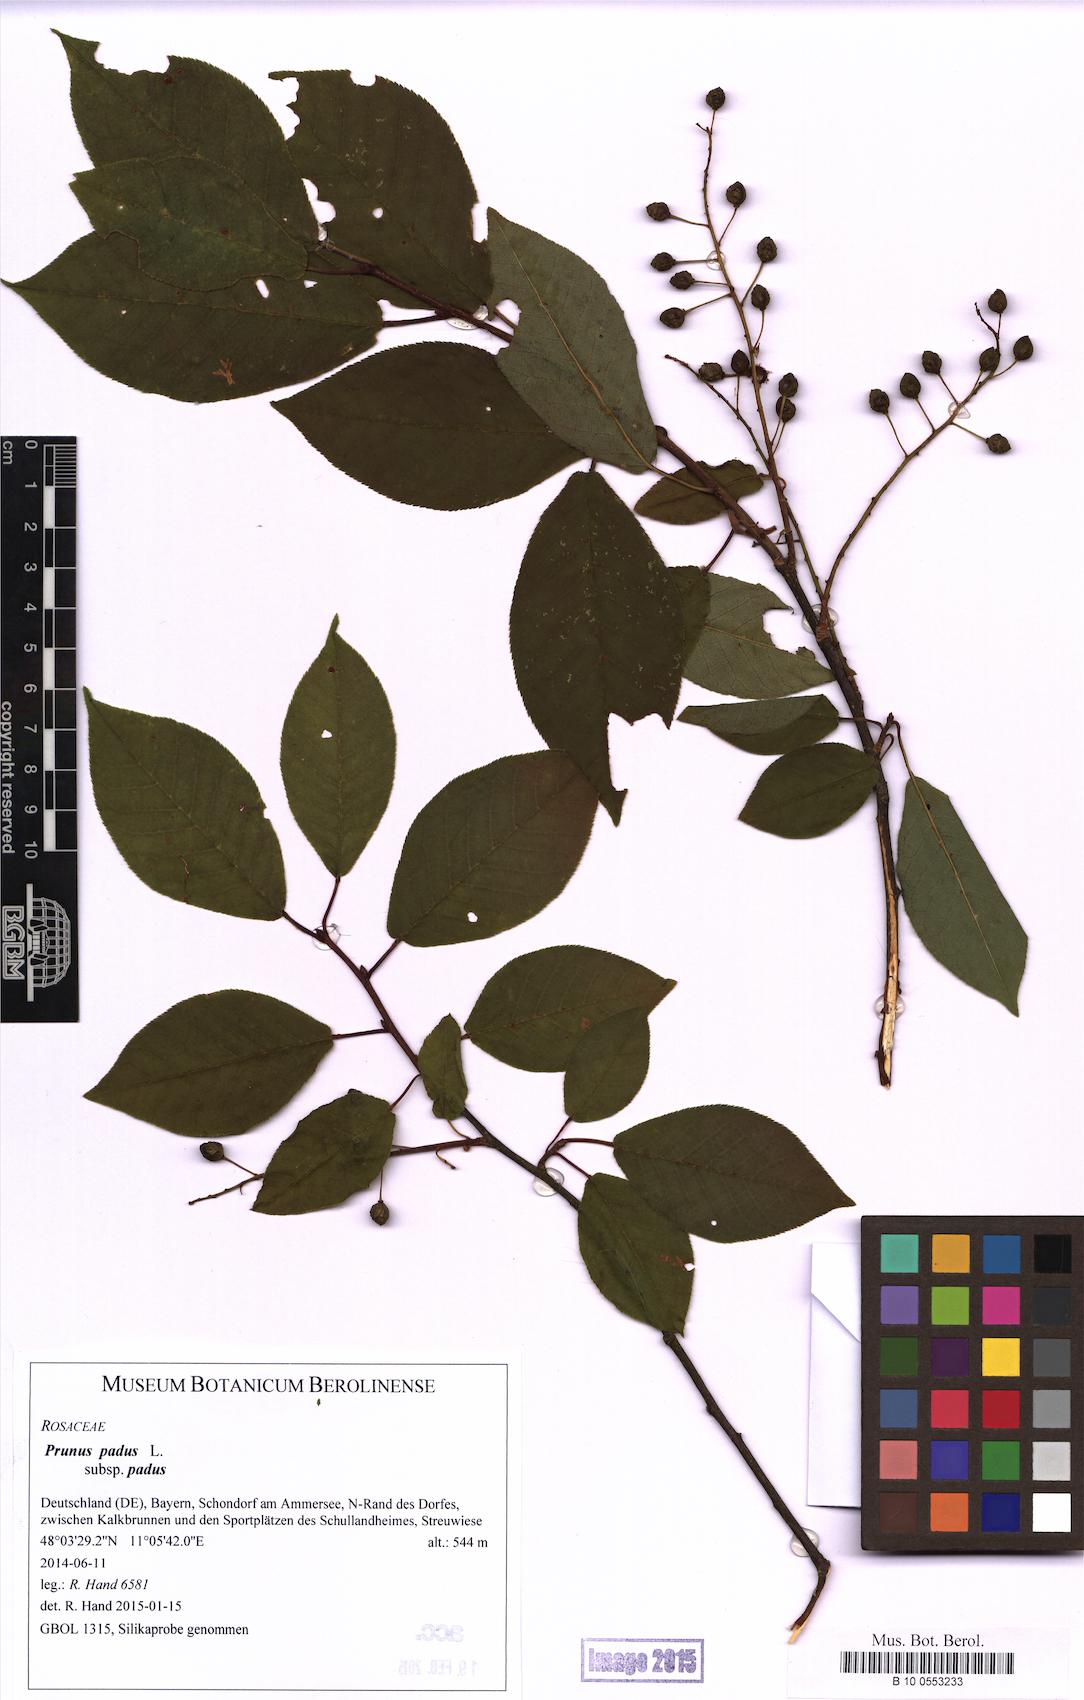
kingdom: Plantae
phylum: Tracheophyta
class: Magnoliopsida
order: Rosales
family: Rosaceae
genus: Prunus
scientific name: Prunus padus
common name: Bird cherry
